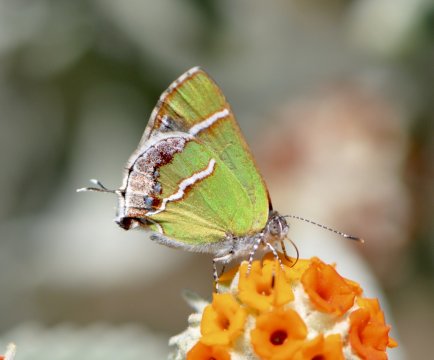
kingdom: Animalia
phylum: Arthropoda
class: Insecta
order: Lepidoptera
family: Lycaenidae
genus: Chlorostrymon
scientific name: Chlorostrymon simaethis
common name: Silver-banded Hairstreak
